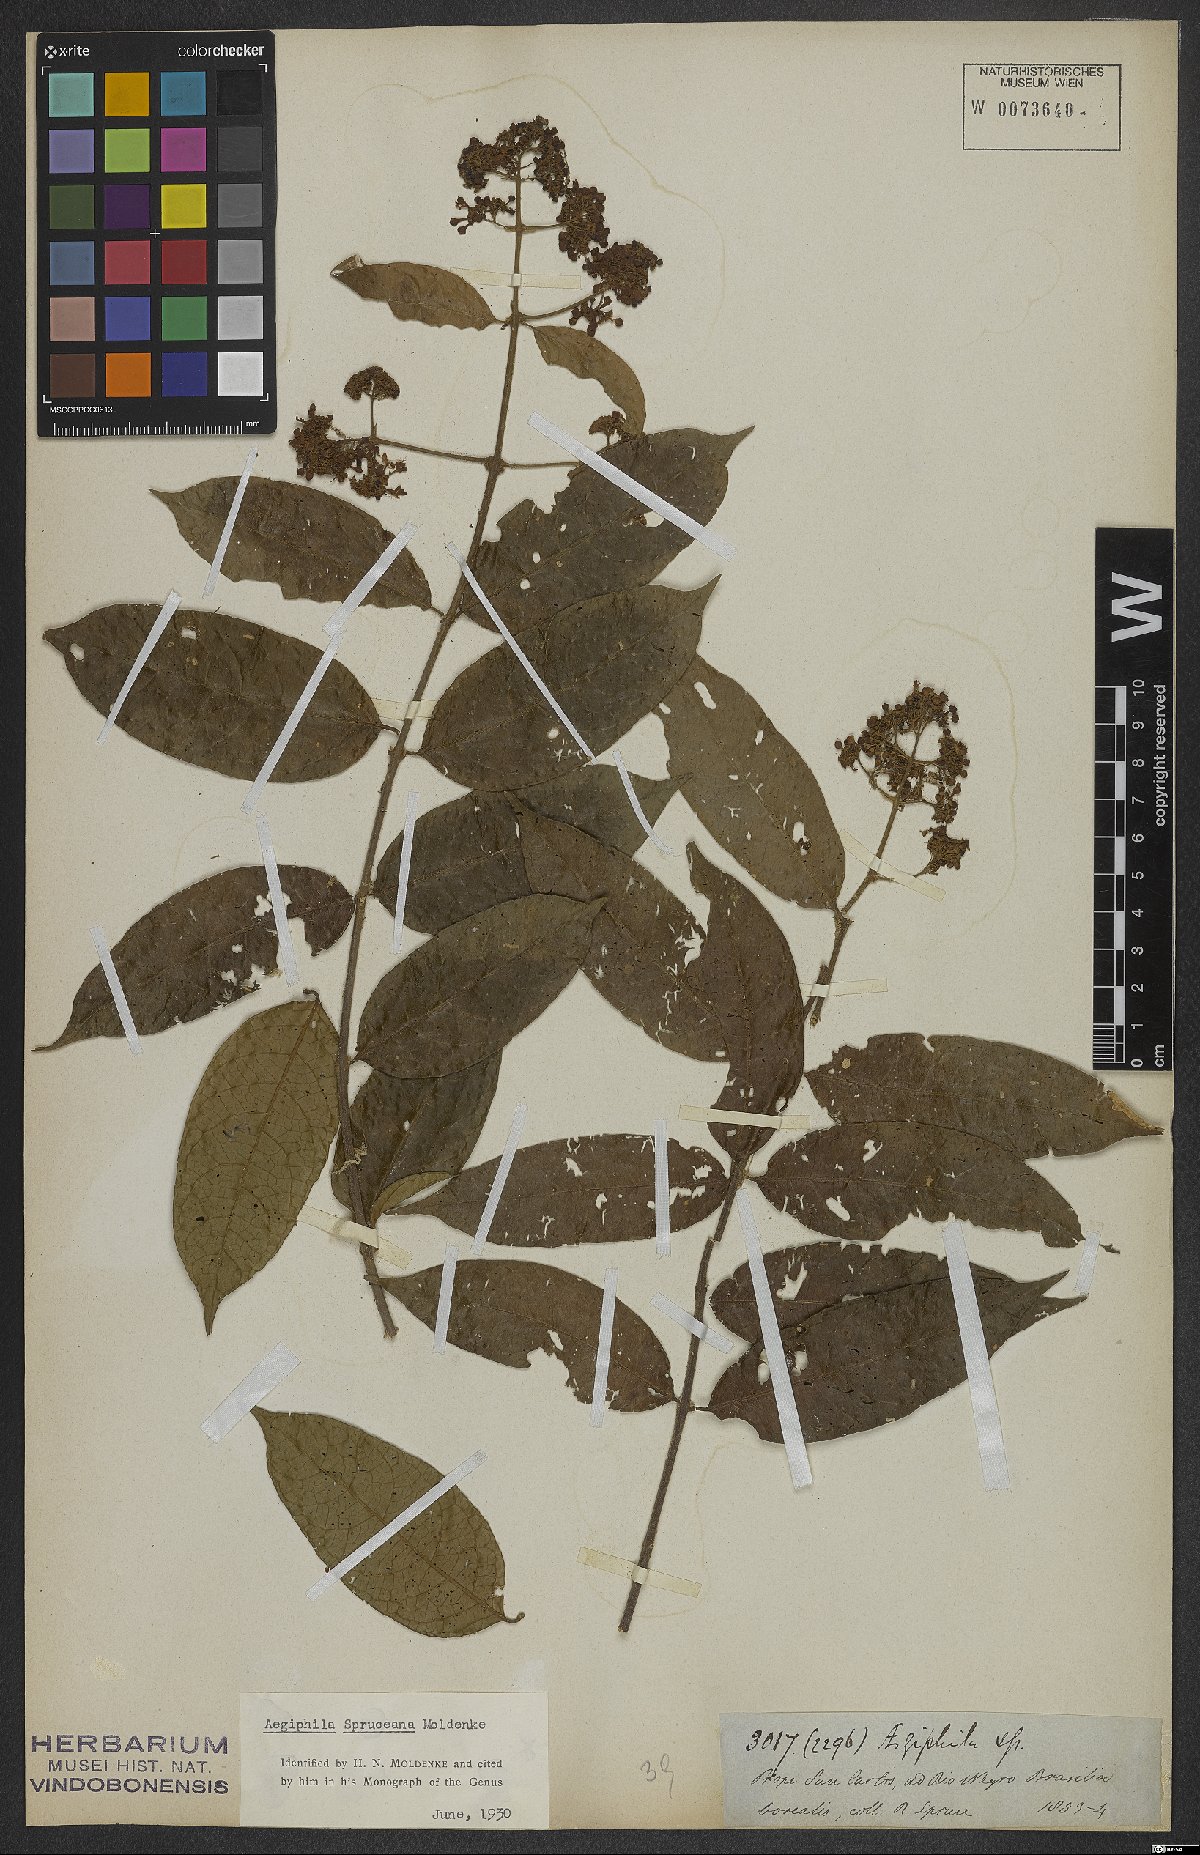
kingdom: Plantae
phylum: Tracheophyta
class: Magnoliopsida
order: Lamiales
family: Lamiaceae
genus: Aegiphila
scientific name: Aegiphila spruceana
